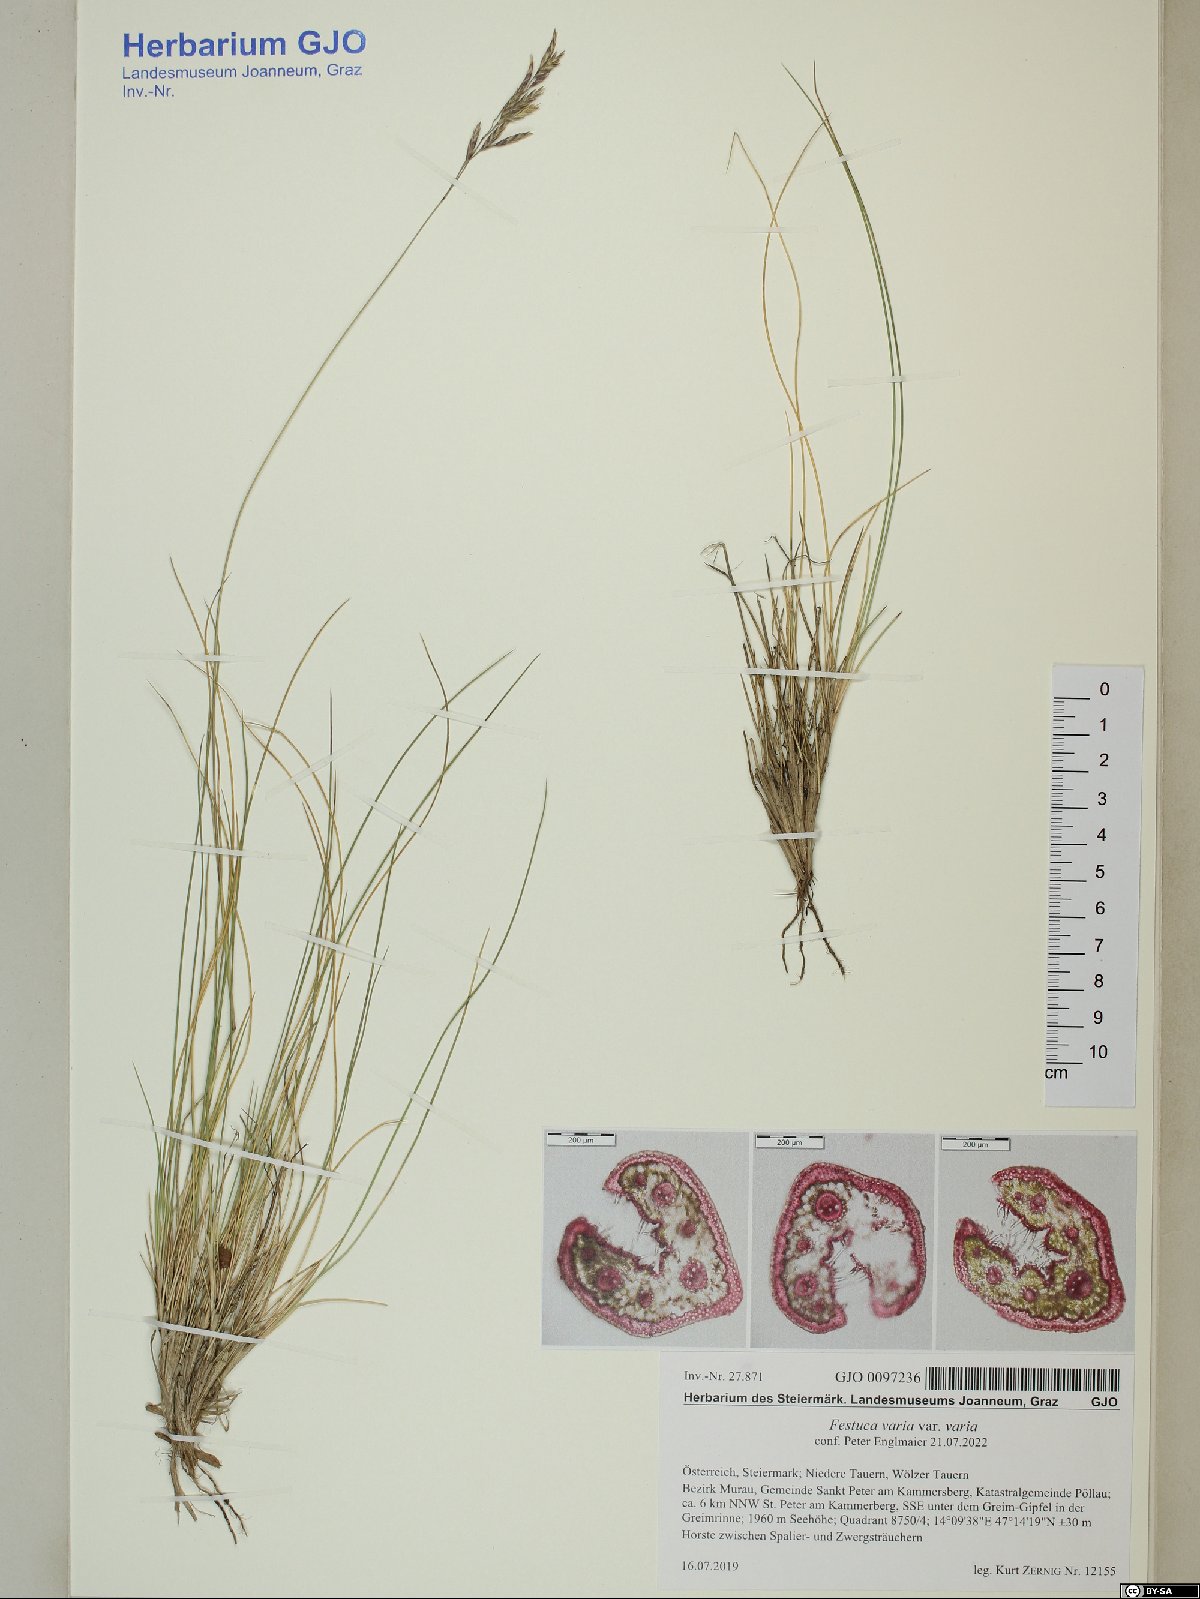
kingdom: Plantae
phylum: Tracheophyta
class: Liliopsida
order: Poales
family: Poaceae
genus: Festuca
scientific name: Festuca varia
